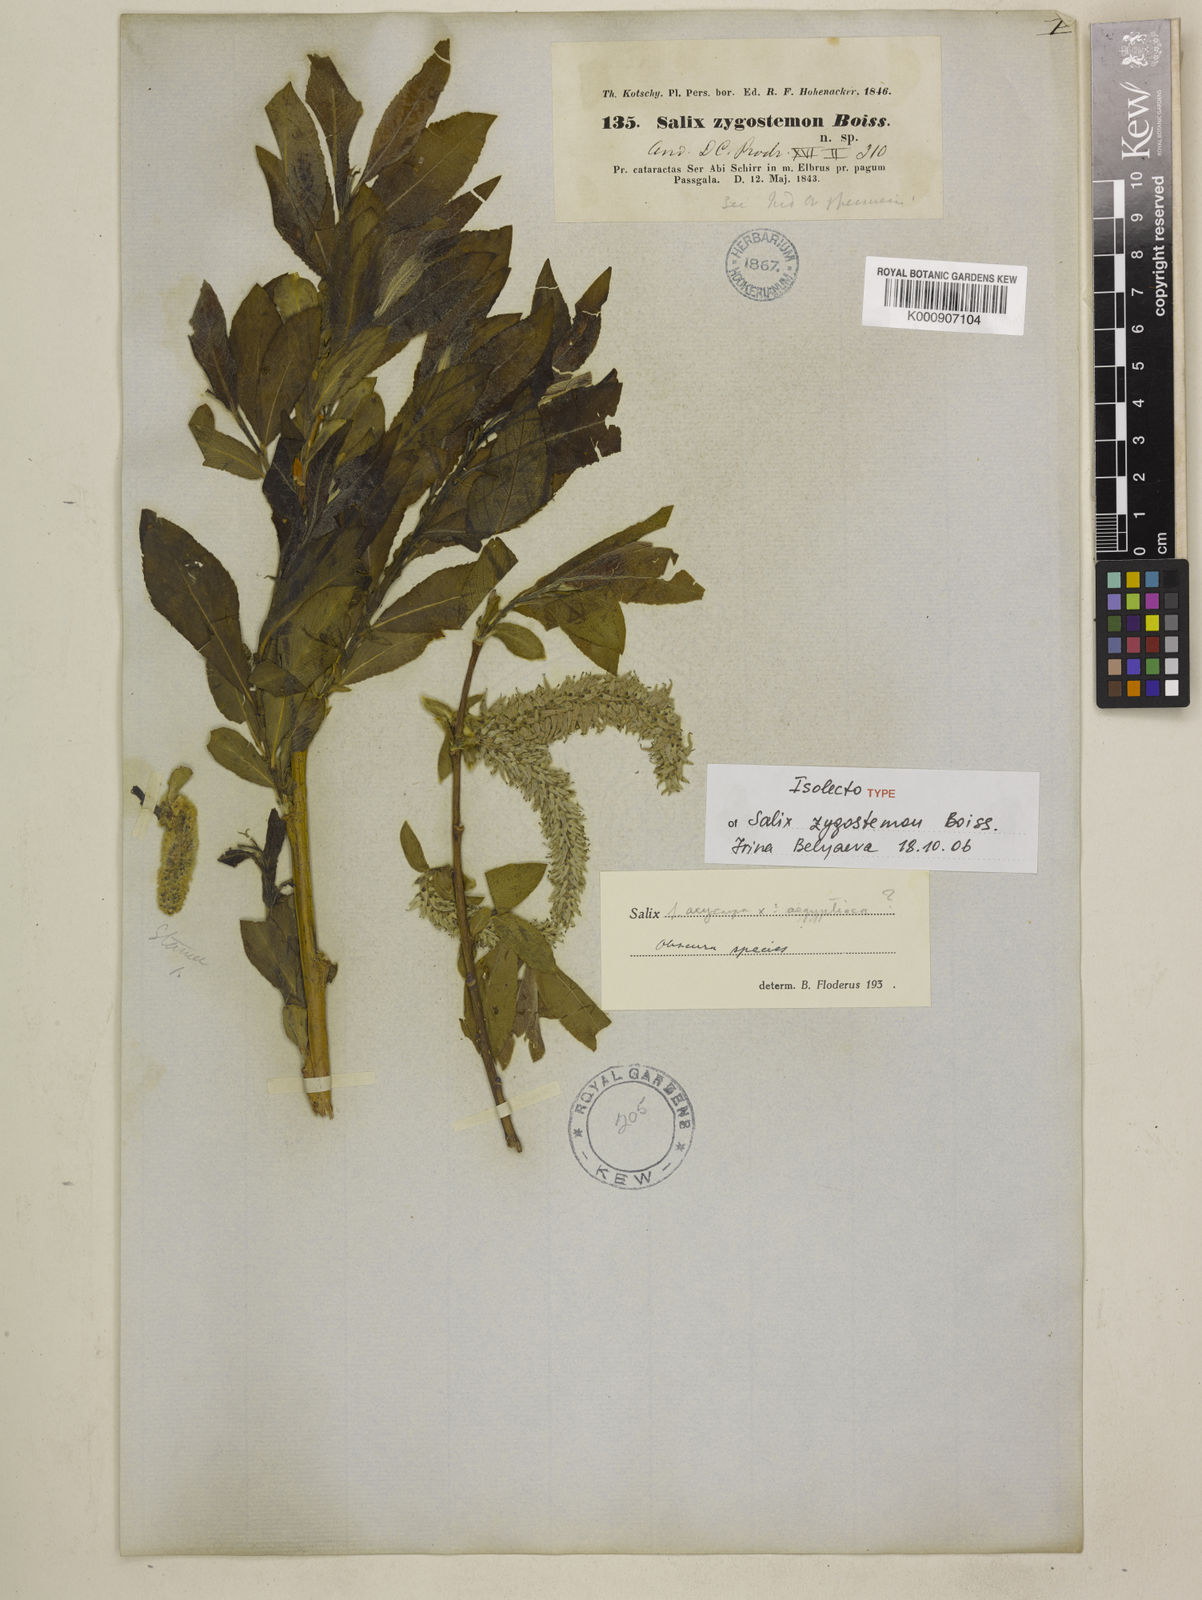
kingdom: Plantae
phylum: Tracheophyta
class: Magnoliopsida
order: Malpighiales
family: Salicaceae
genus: Salix
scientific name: Salix sericocarpa
